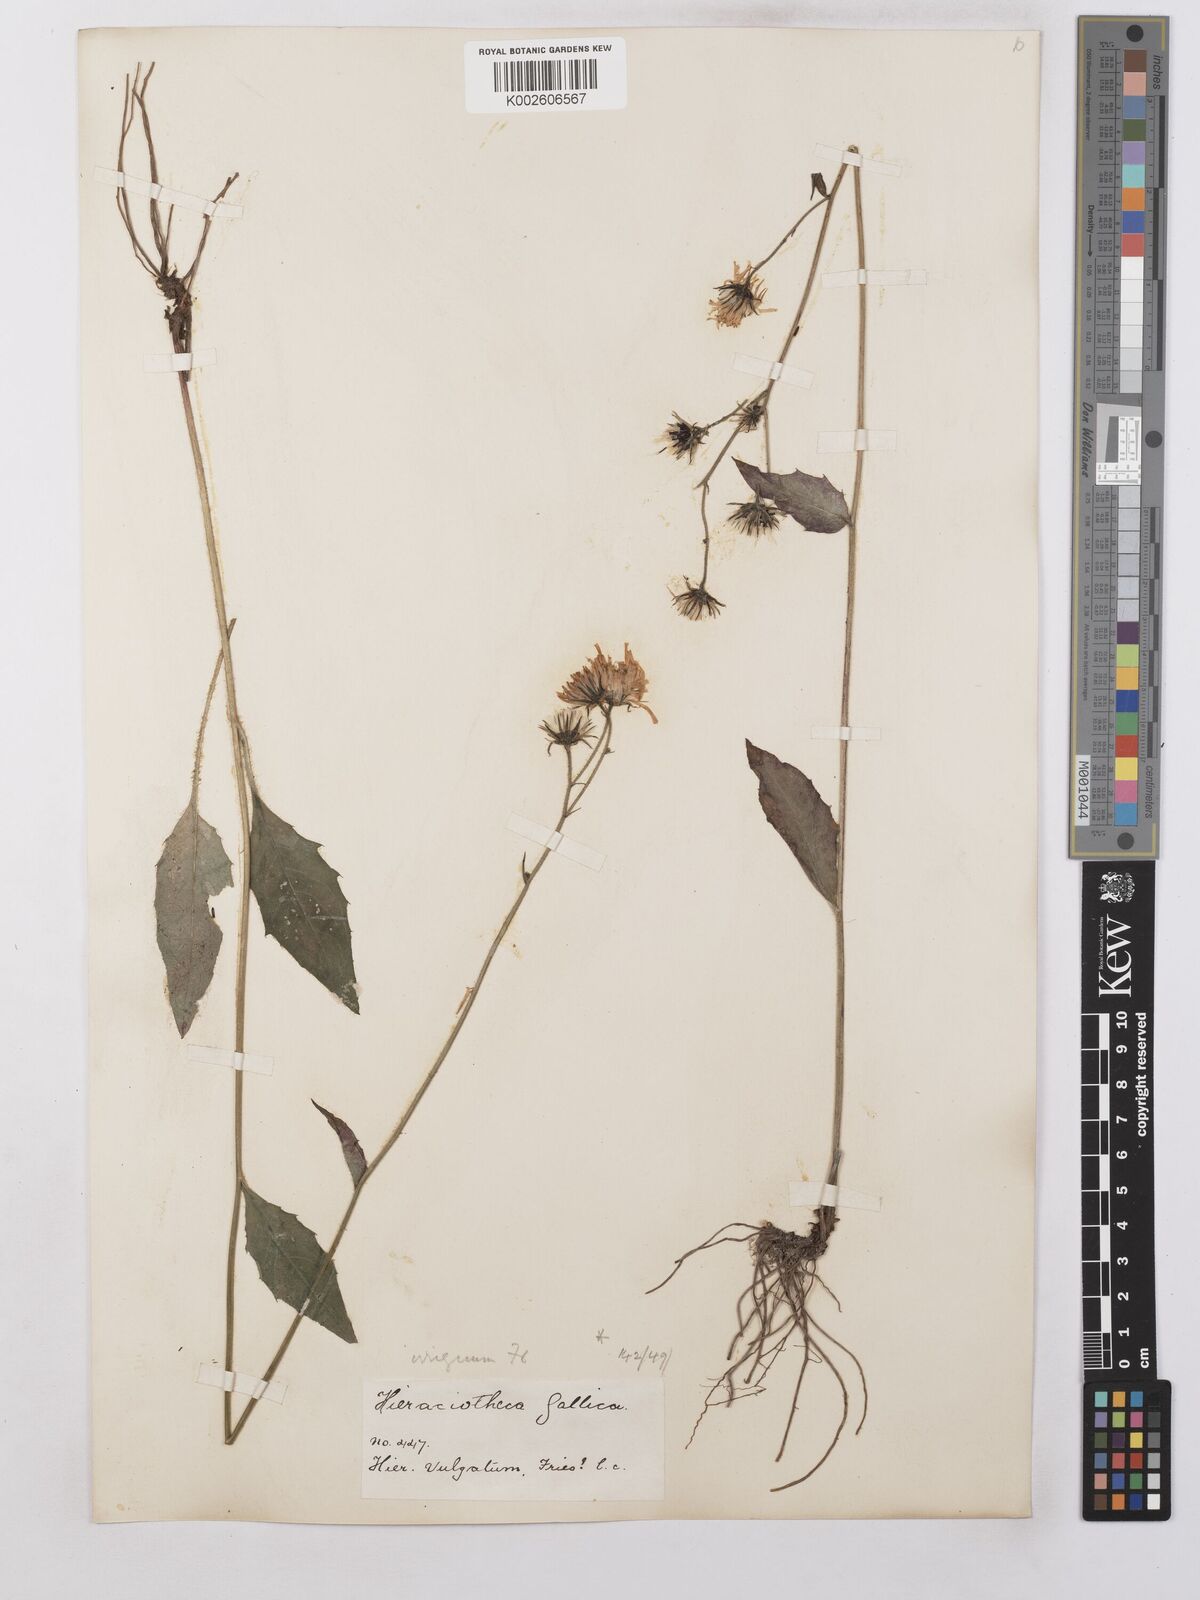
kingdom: Plantae
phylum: Tracheophyta
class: Magnoliopsida
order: Asterales
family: Asteraceae
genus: Hieracium
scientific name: Hieracium lachenalii
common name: Common hawkweed
